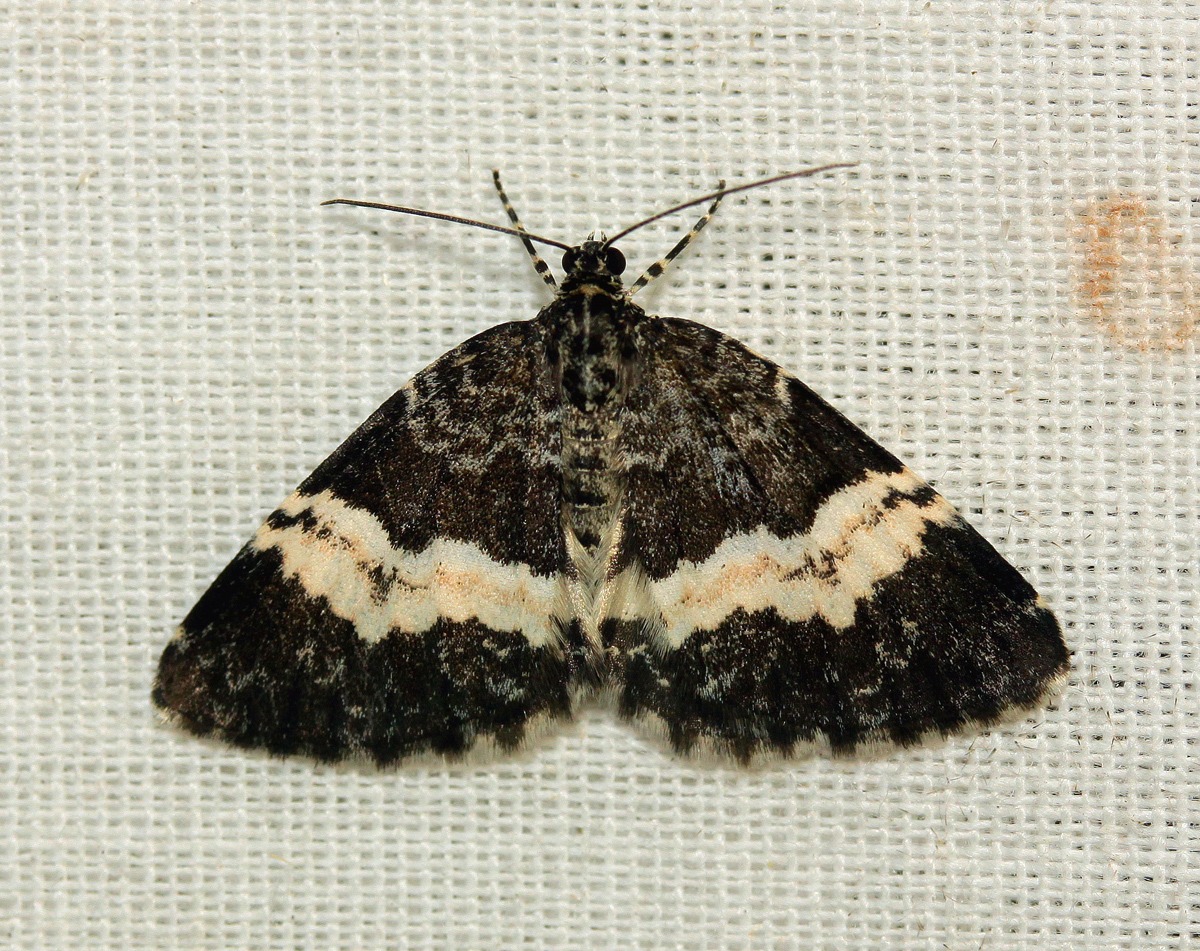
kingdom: Animalia
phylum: Arthropoda
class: Insecta
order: Lepidoptera
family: Geometridae
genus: Spargania
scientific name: Spargania luctuata
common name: Sørgemåler
